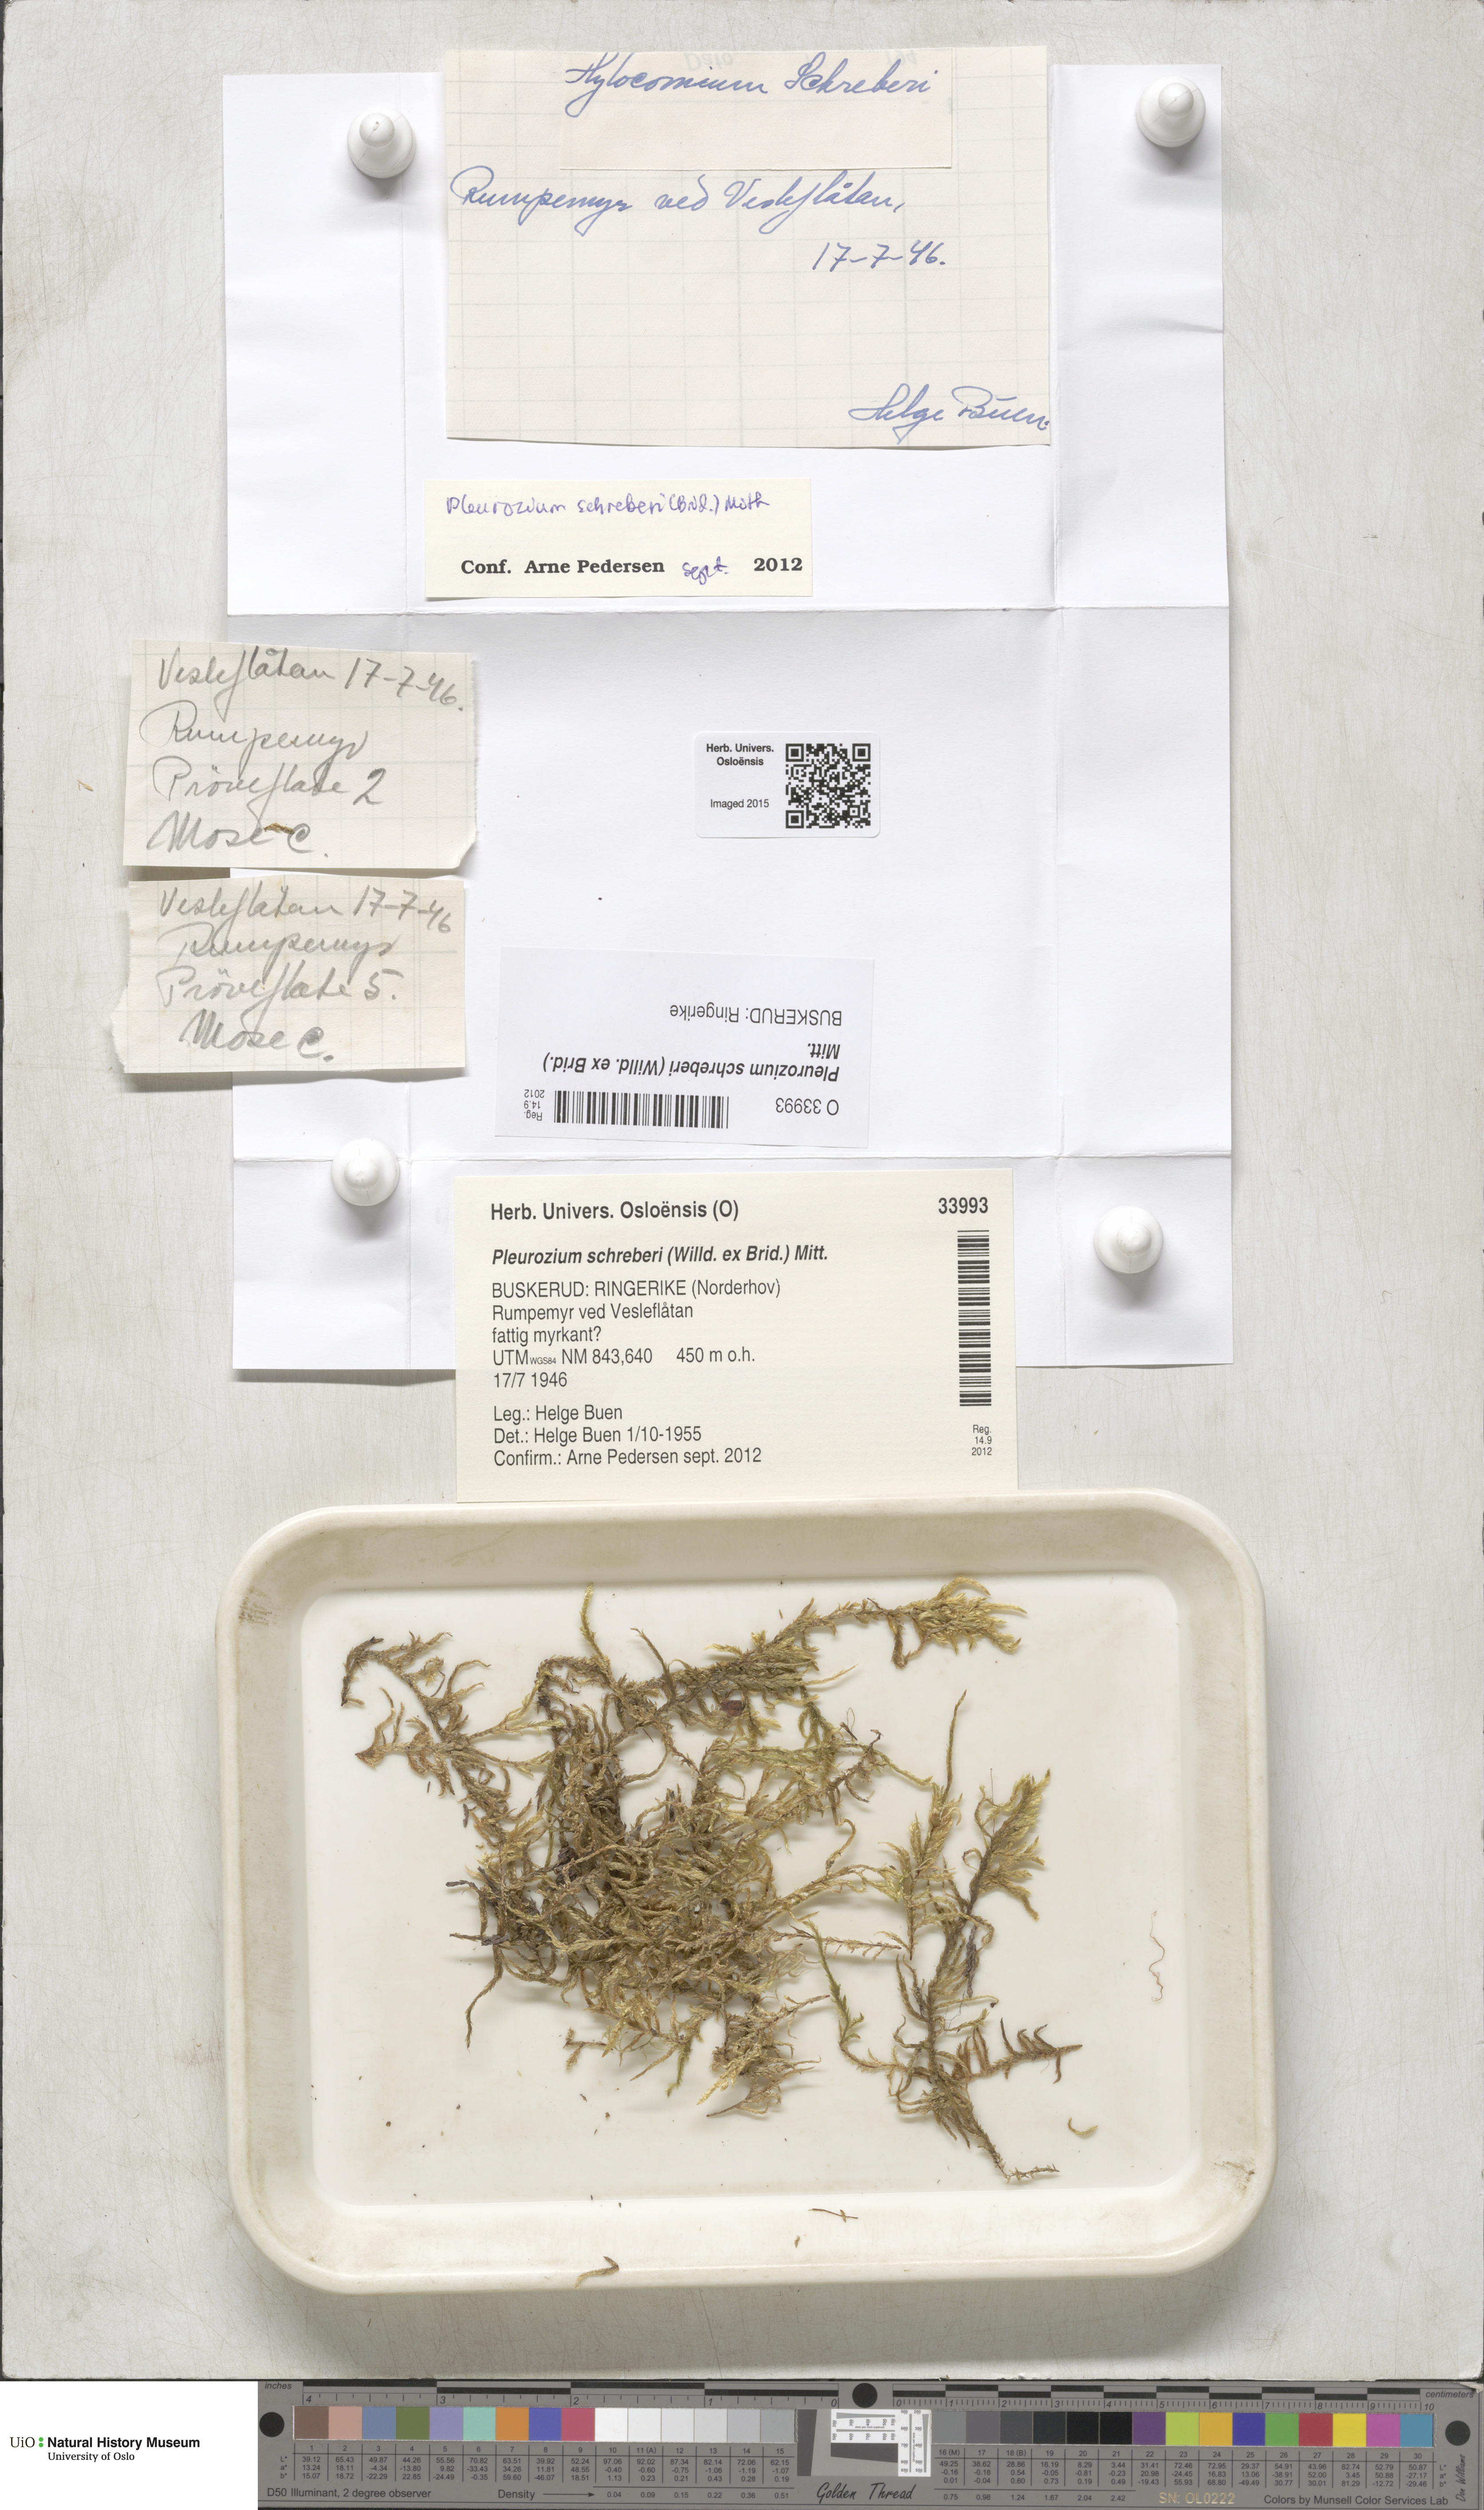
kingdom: Plantae
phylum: Bryophyta
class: Bryopsida
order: Hypnales
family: Hylocomiaceae
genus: Pleurozium
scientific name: Pleurozium schreberi
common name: Red-stemmed feather moss
